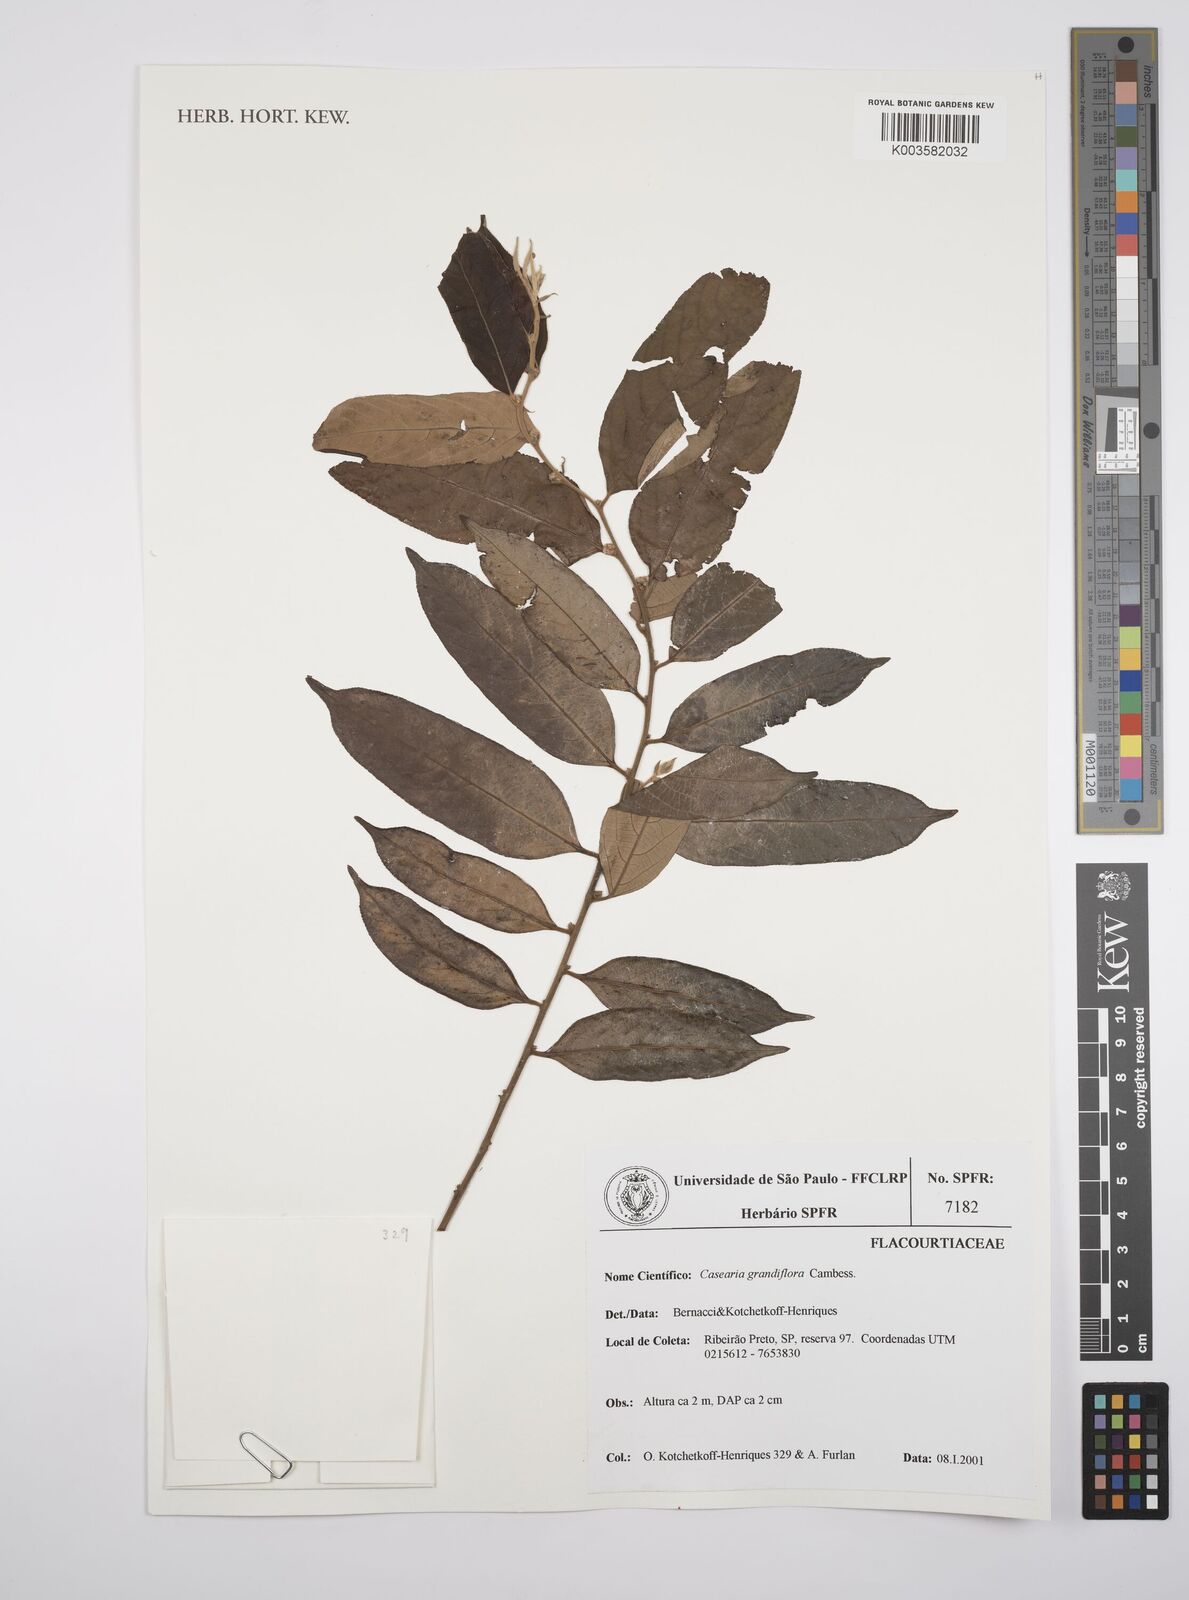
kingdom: Plantae
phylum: Tracheophyta
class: Magnoliopsida
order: Malpighiales
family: Salicaceae
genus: Casearia
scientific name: Casearia grandiflora
